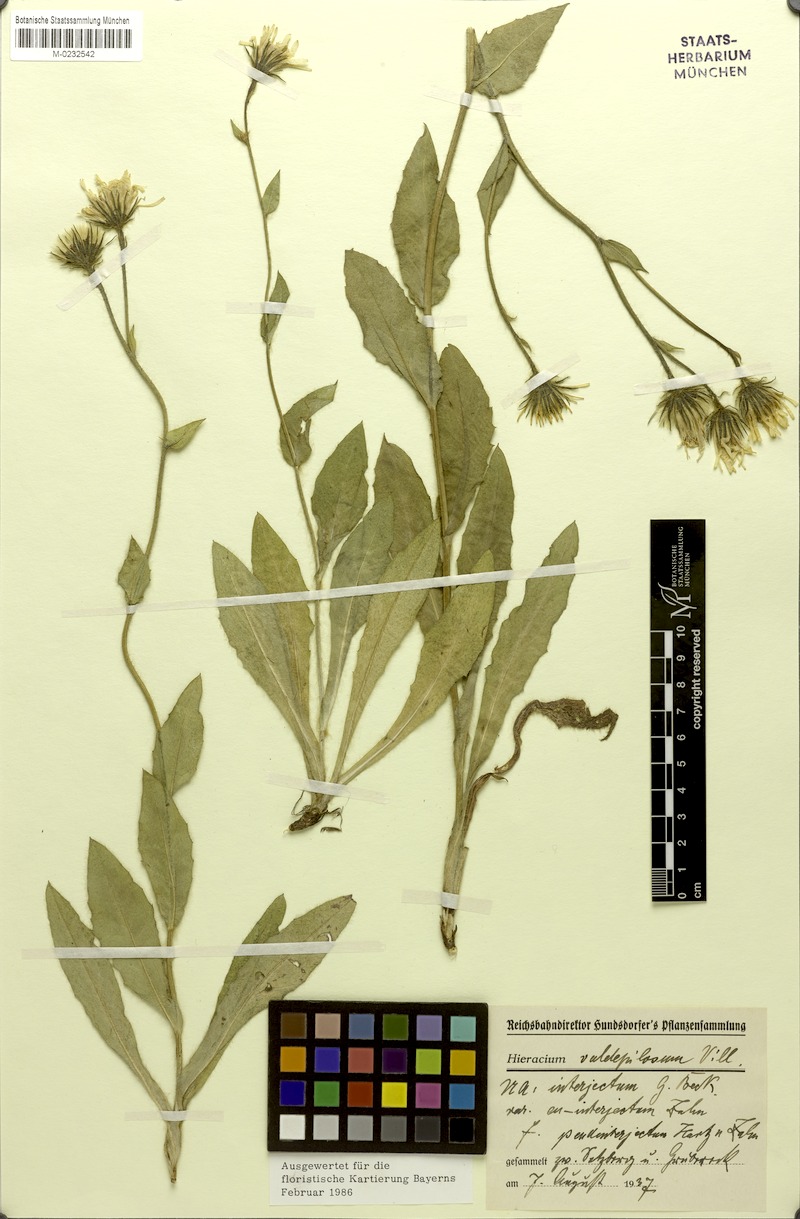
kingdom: Plantae
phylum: Tracheophyta
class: Magnoliopsida
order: Asterales
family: Asteraceae
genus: Hieracium
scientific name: Hieracium valdepilosum
